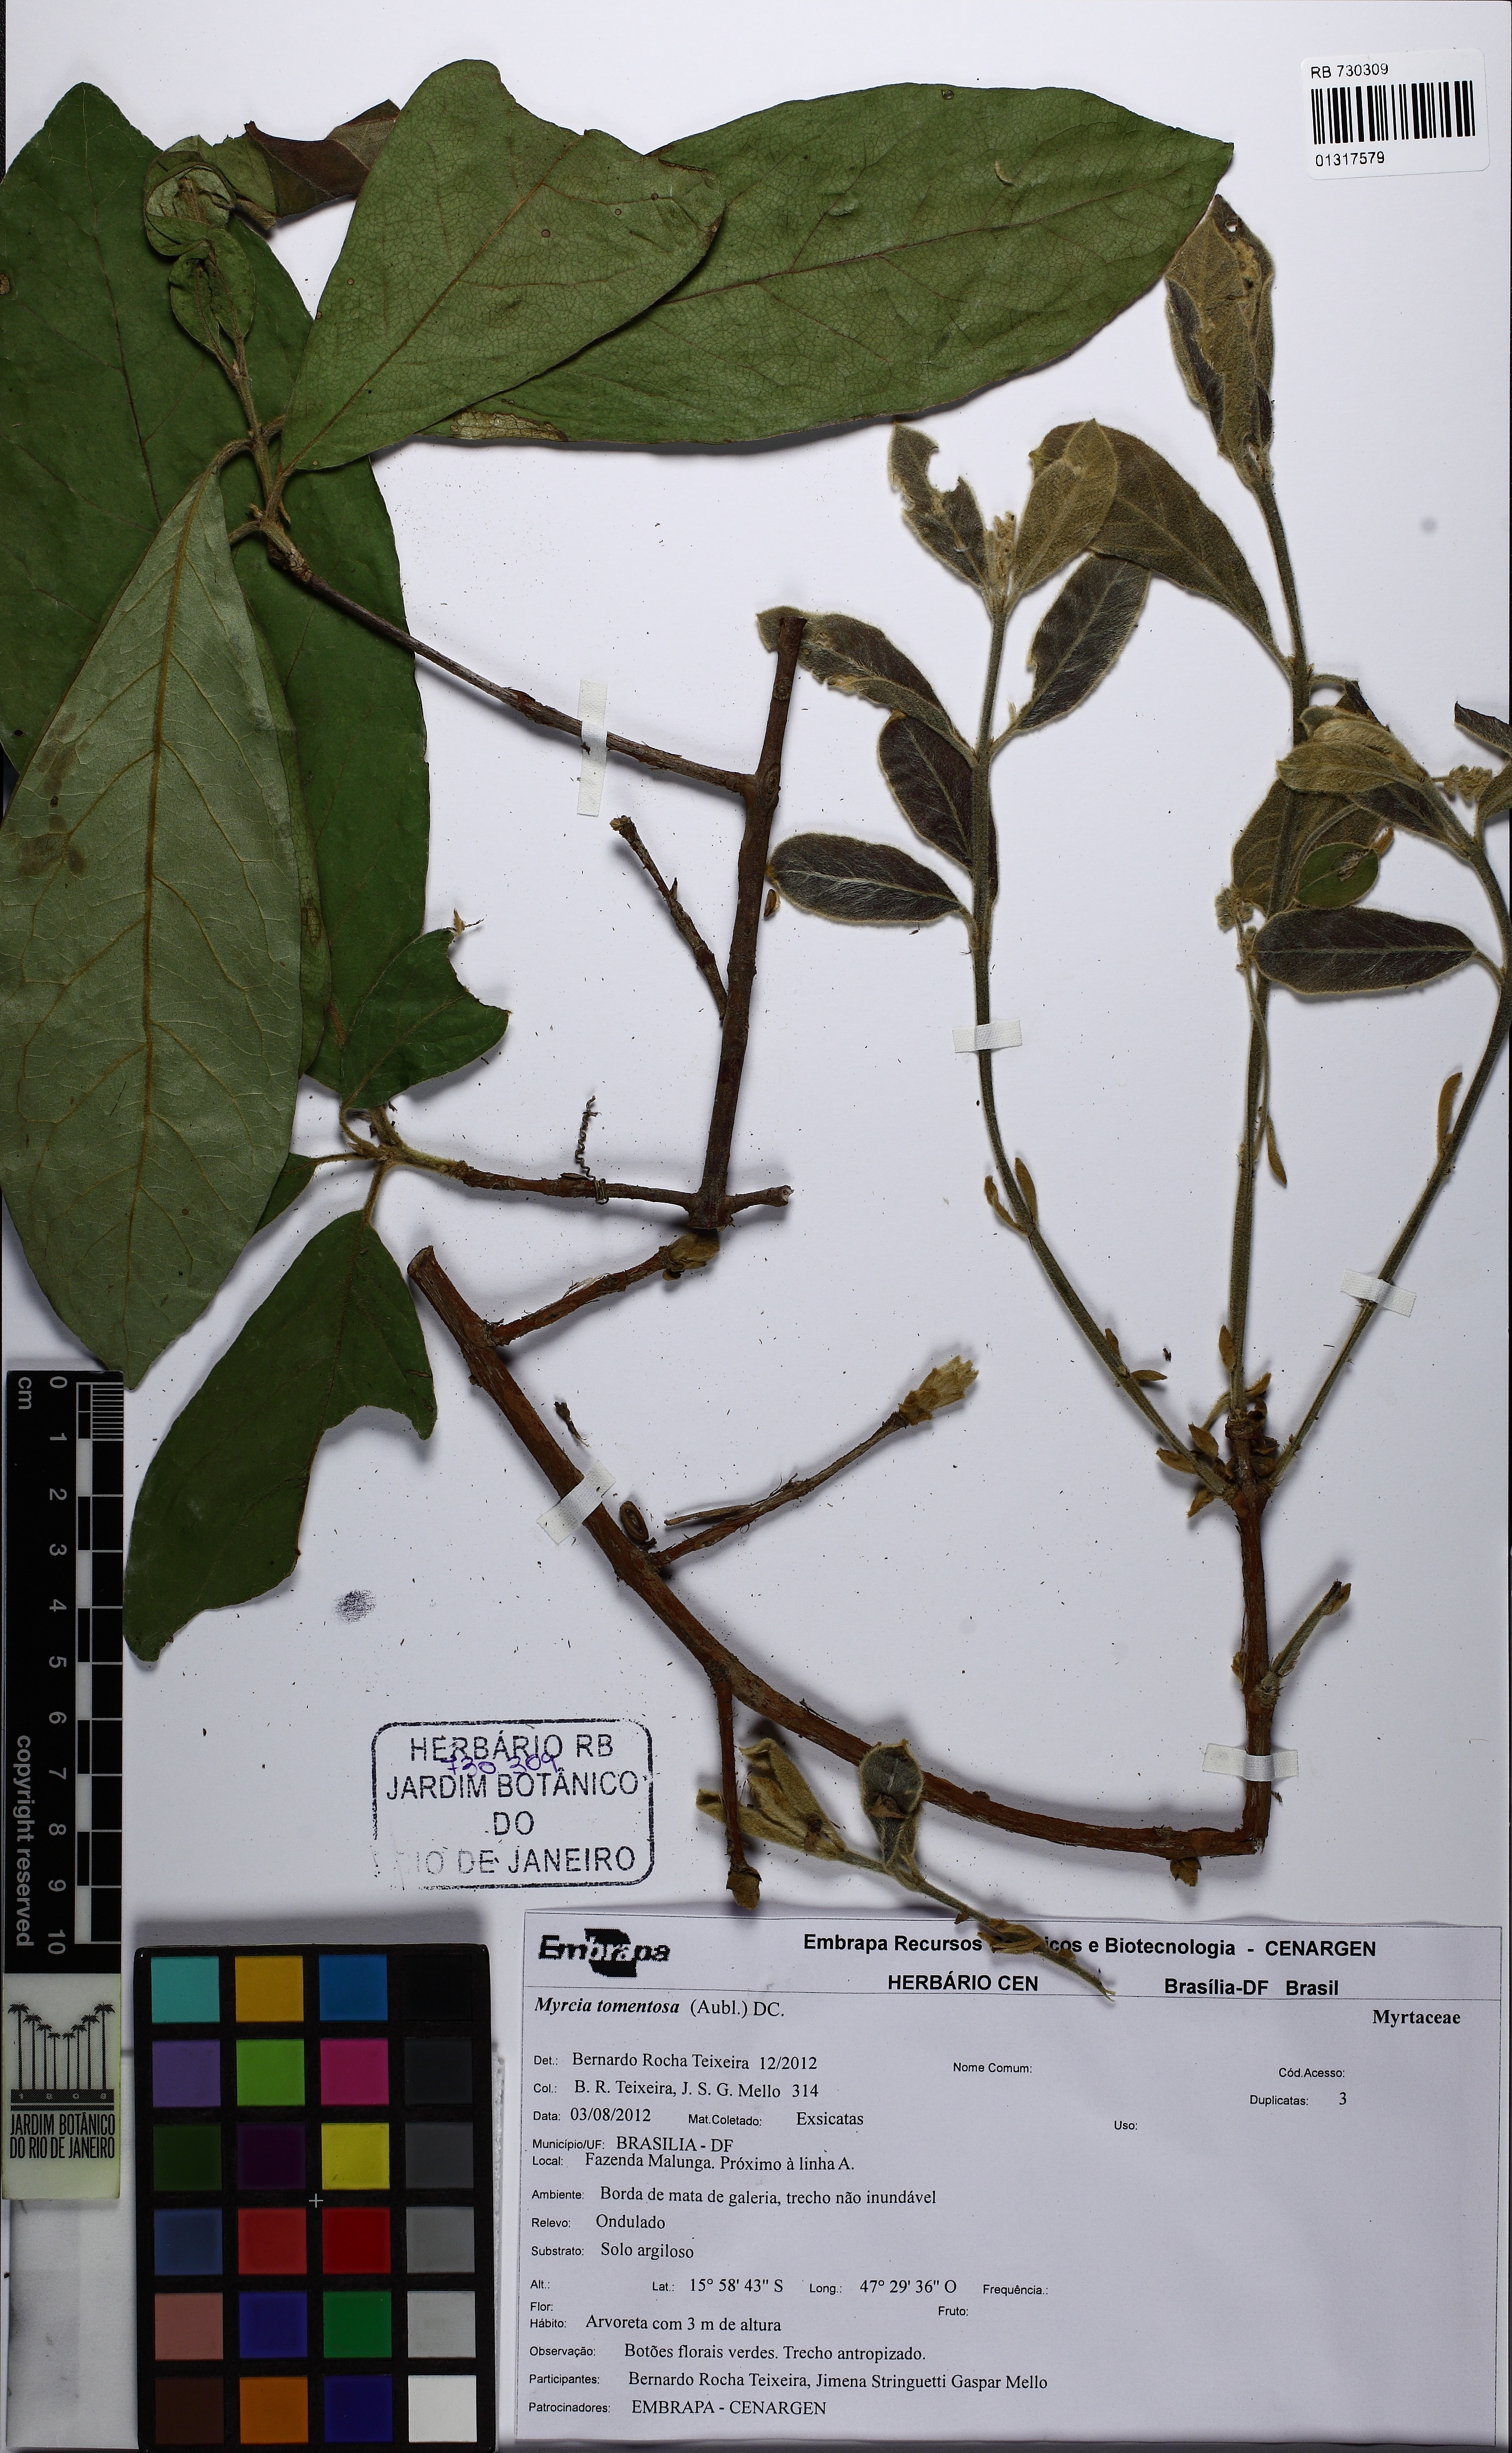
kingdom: Plantae
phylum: Tracheophyta
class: Magnoliopsida
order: Myrtales
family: Myrtaceae
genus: Myrcia
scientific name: Myrcia tomentosa
